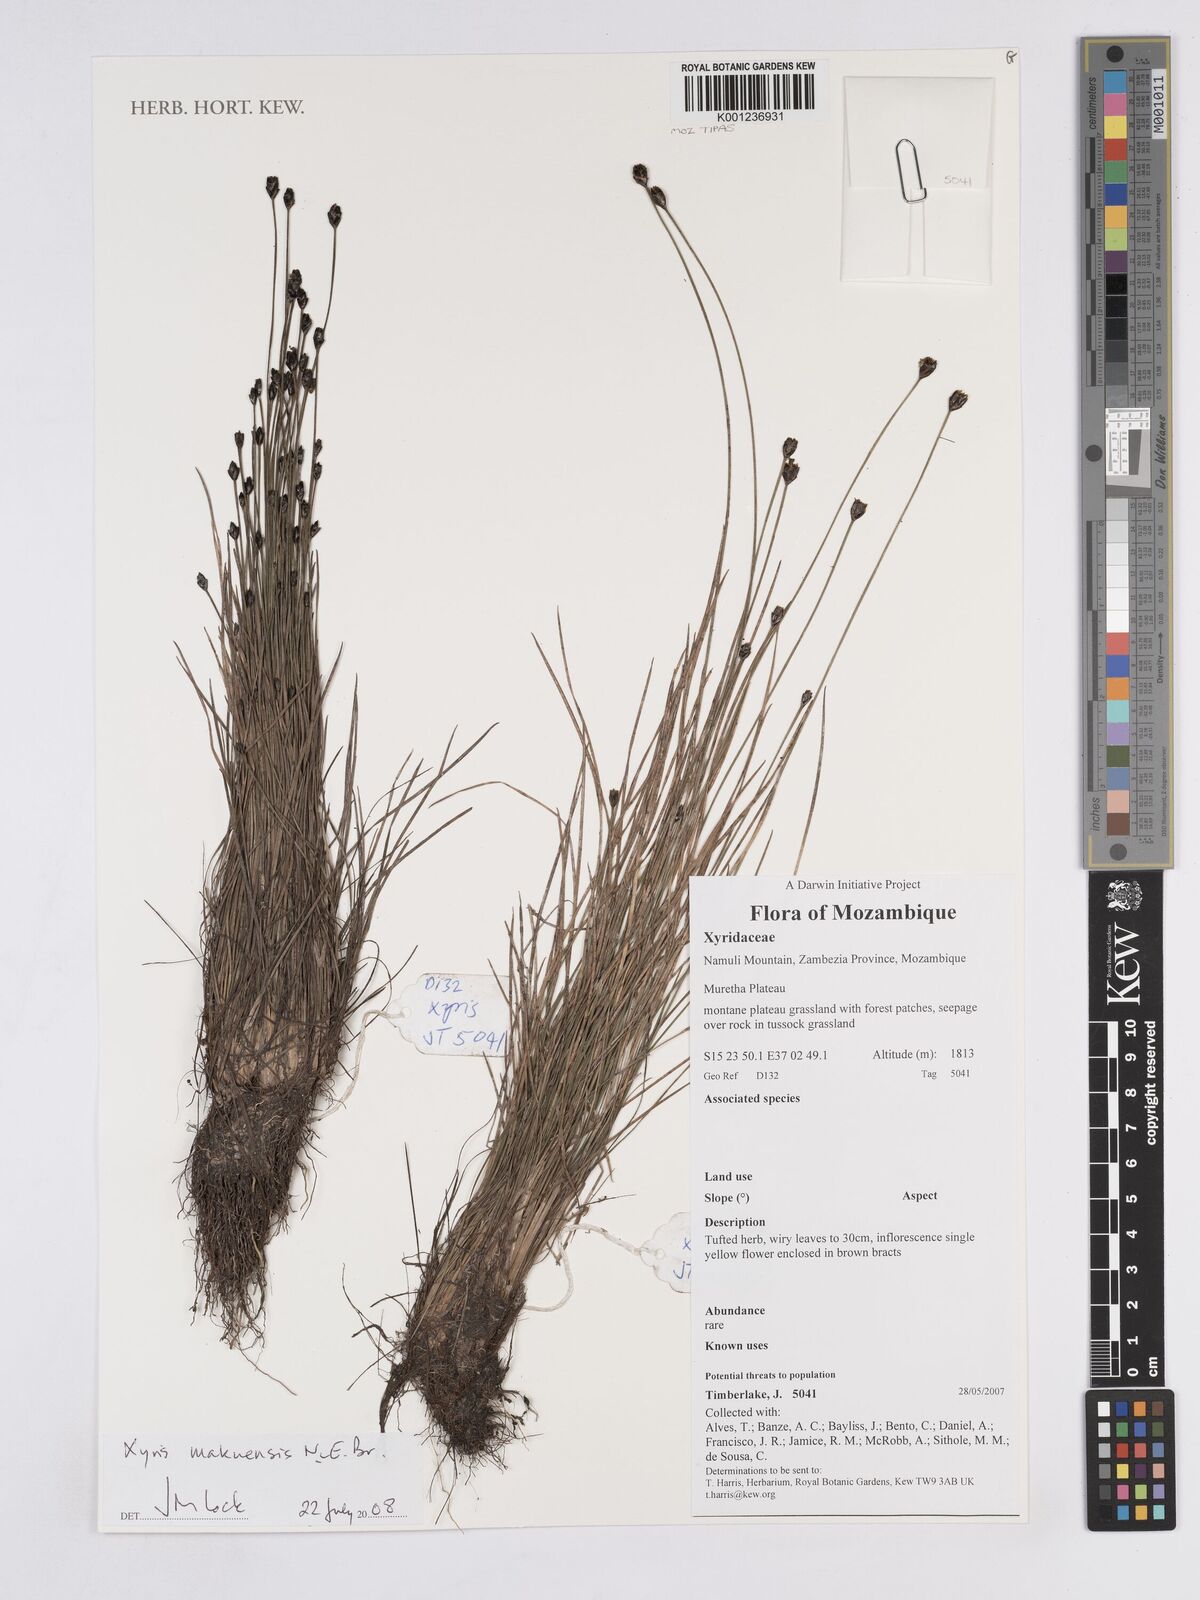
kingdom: Plantae
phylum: Tracheophyta
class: Liliopsida
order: Poales
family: Xyridaceae
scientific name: Xyridaceae
